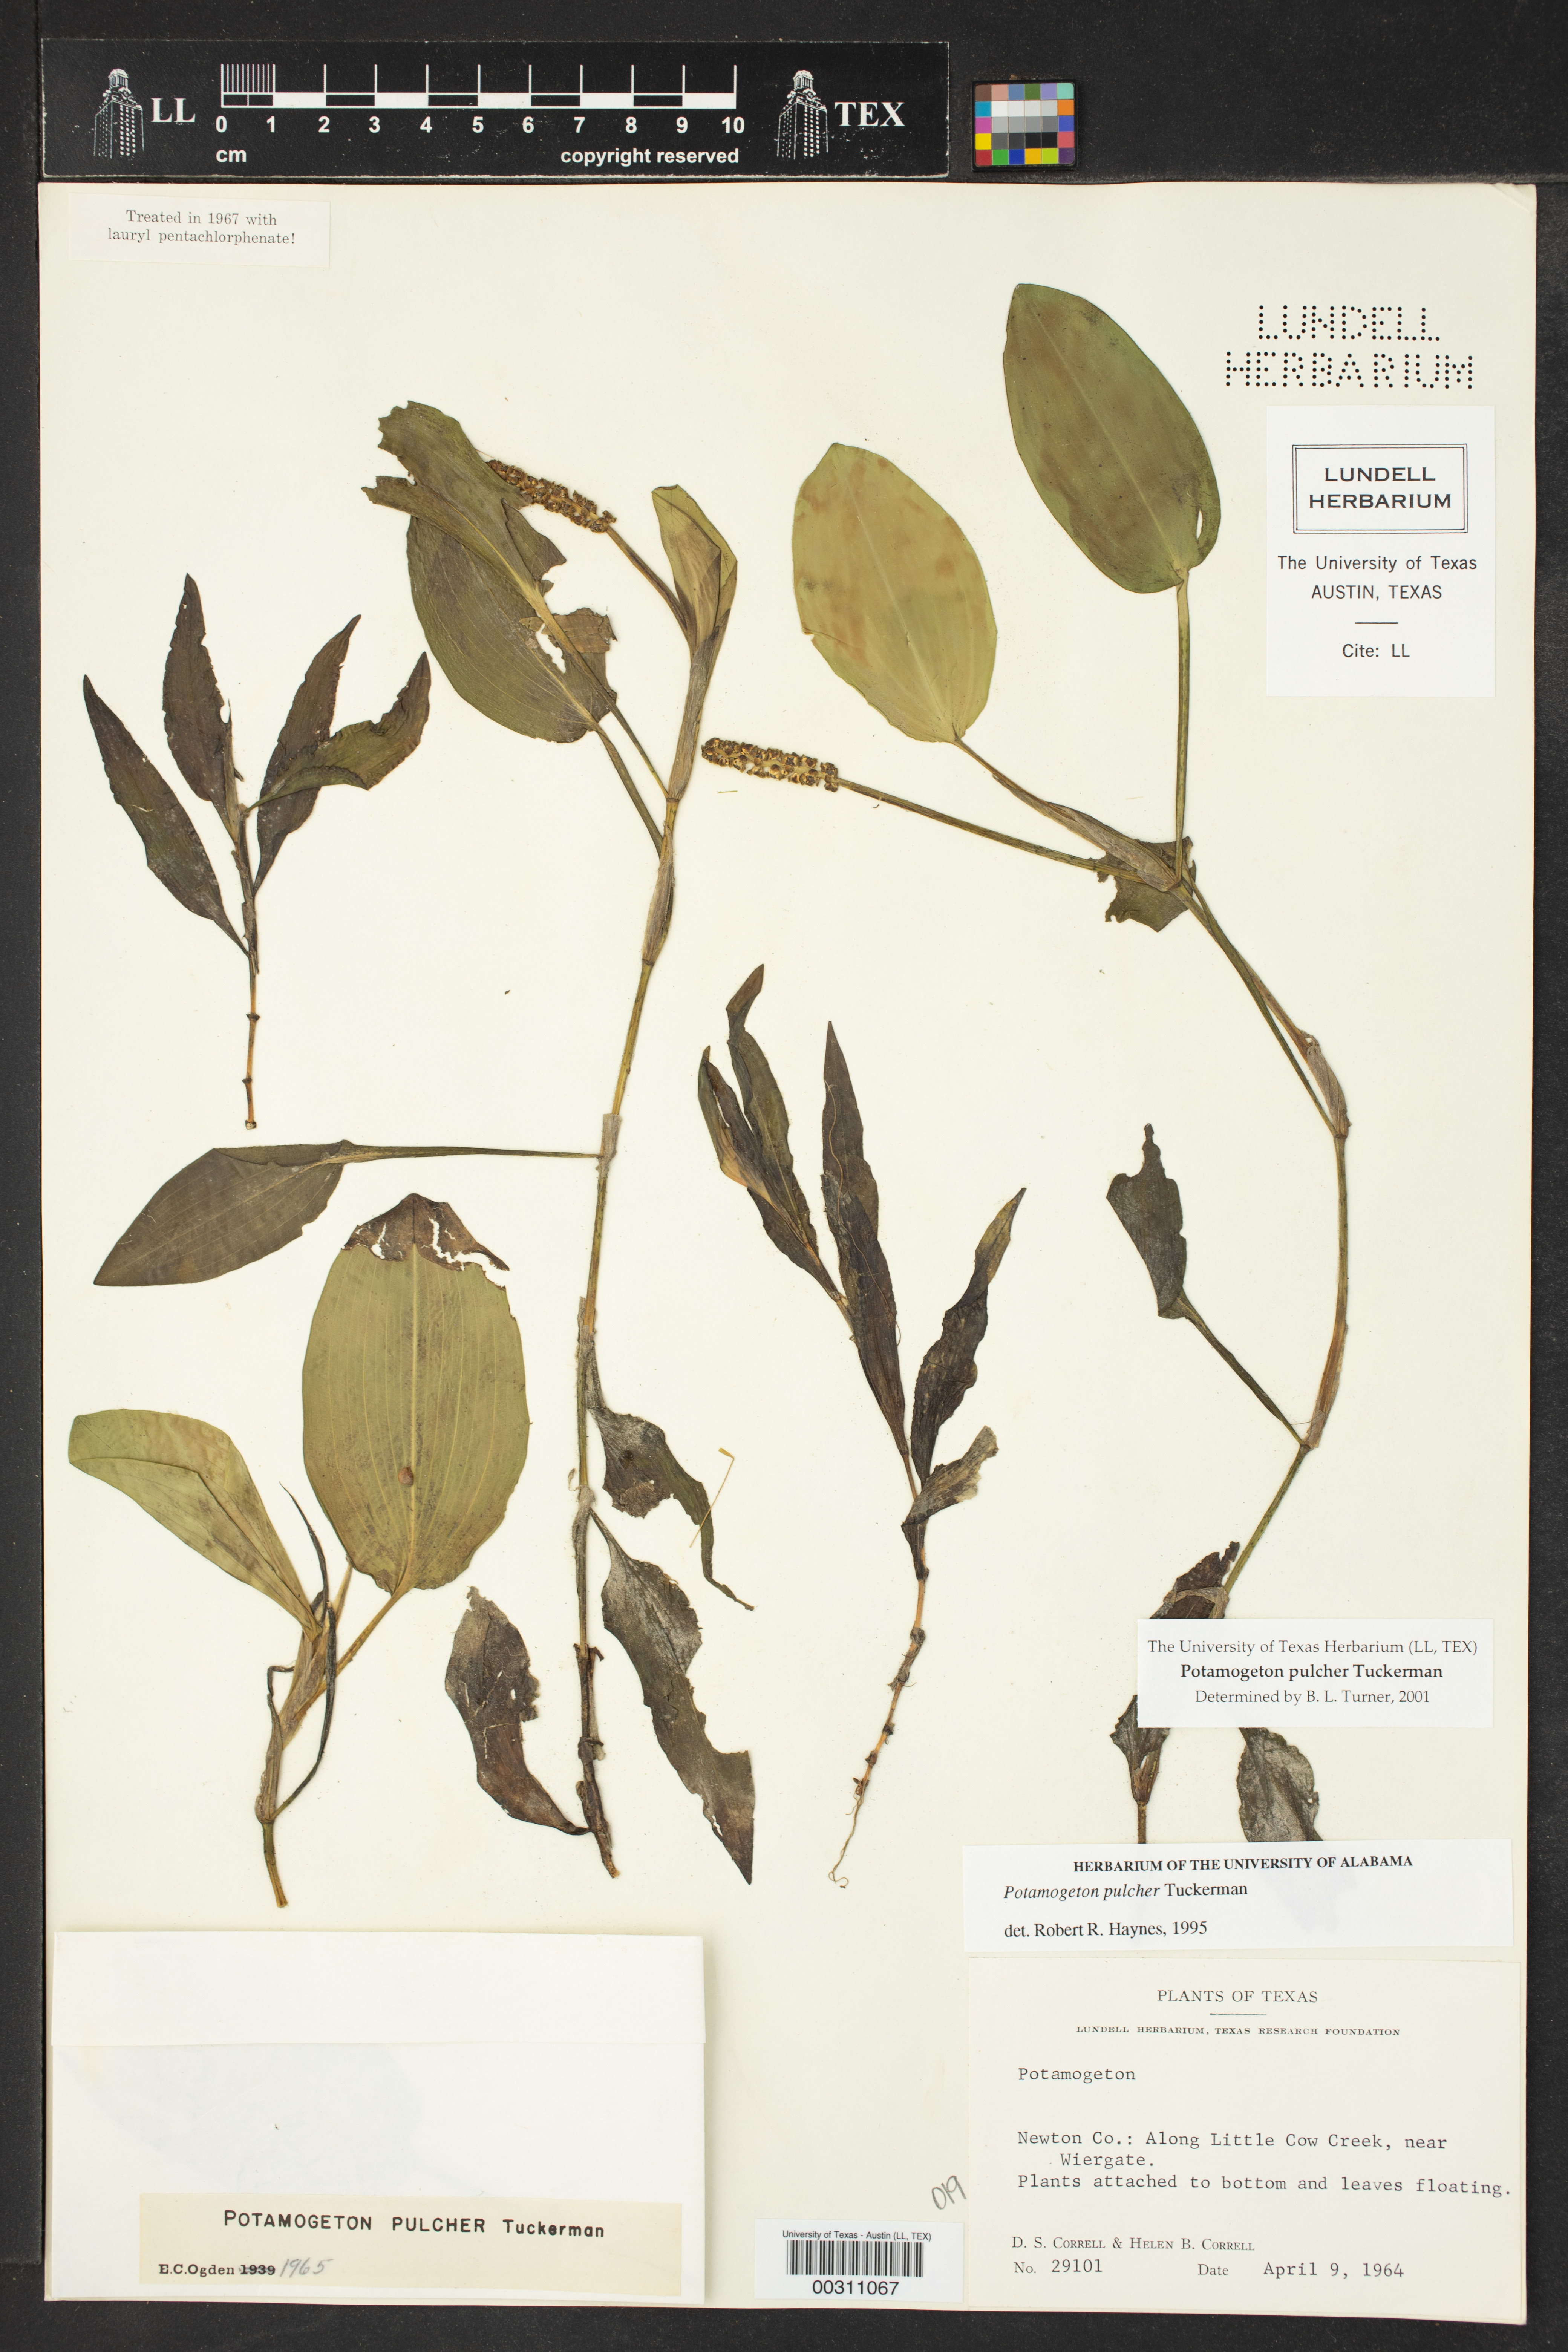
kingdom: Plantae
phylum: Tracheophyta
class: Liliopsida
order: Alismatales
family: Potamogetonaceae
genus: Potamogeton
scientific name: Potamogeton pulcher
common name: Heart-leaved pondweed
